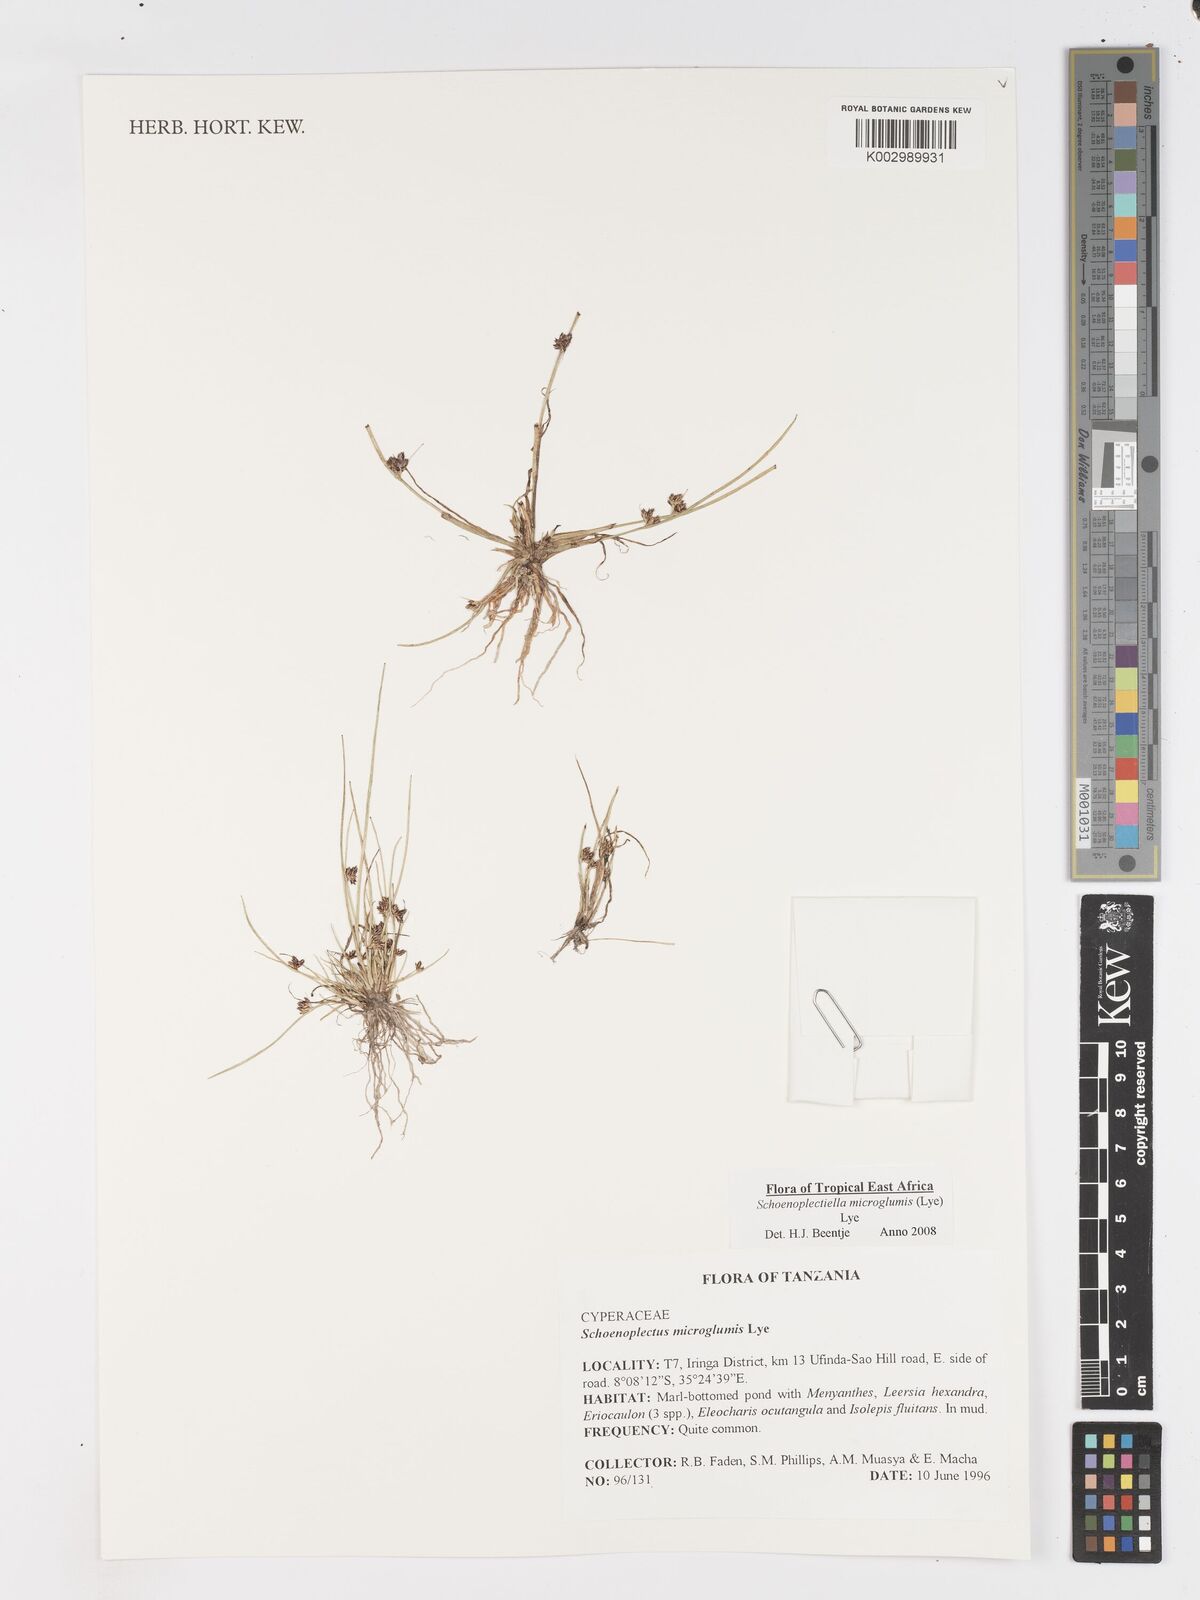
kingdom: Plantae
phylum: Tracheophyta
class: Liliopsida
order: Poales
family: Cyperaceae
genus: Schoenoplectiella
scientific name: Schoenoplectiella microglumis
